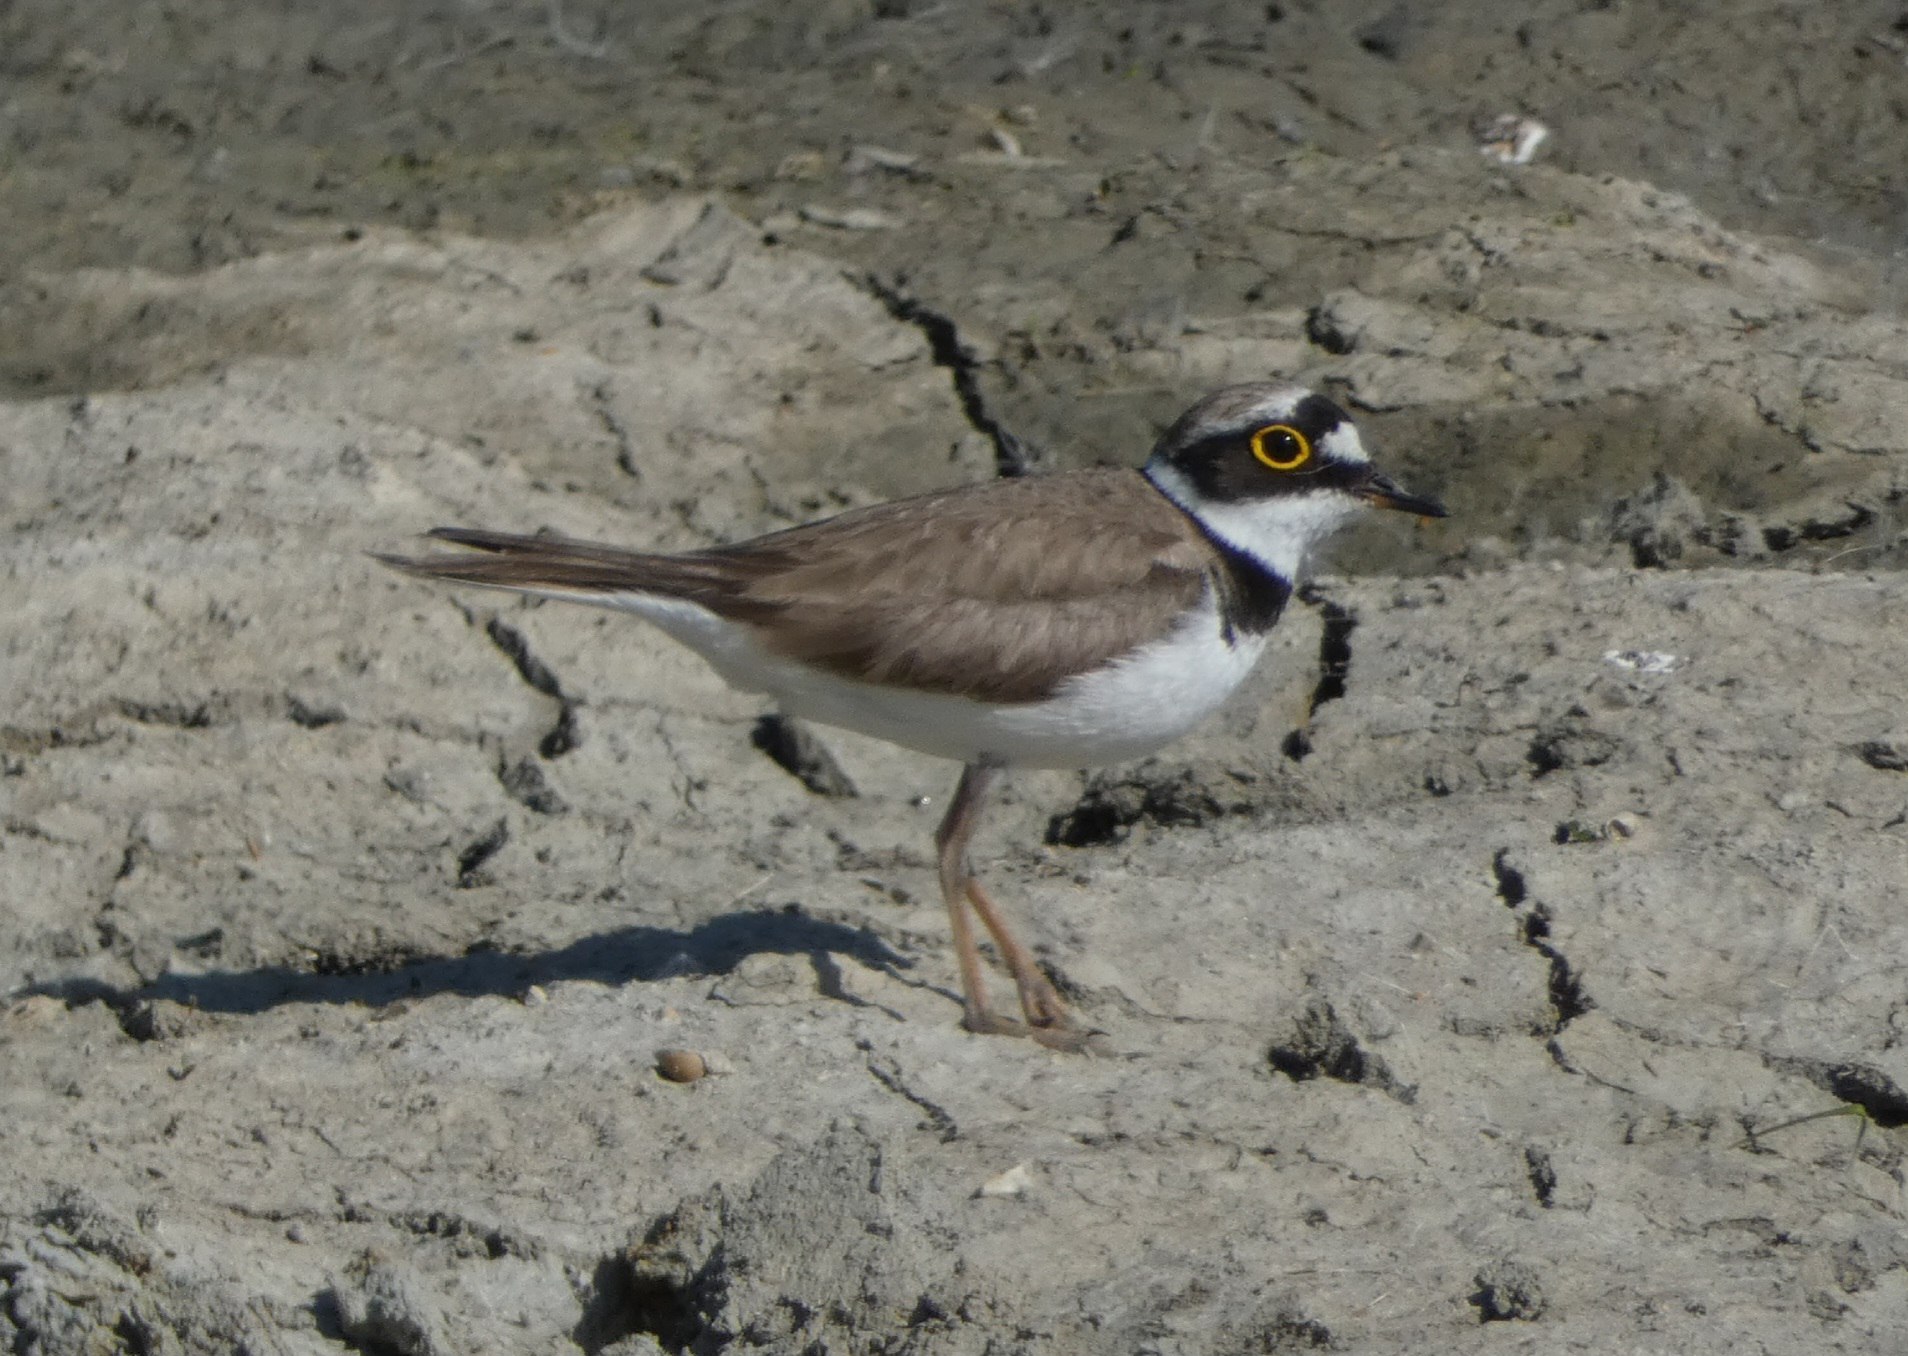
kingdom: Animalia
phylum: Chordata
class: Aves
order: Charadriiformes
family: Charadriidae
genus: Charadrius
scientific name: Charadrius dubius
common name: Lille præstekrave
